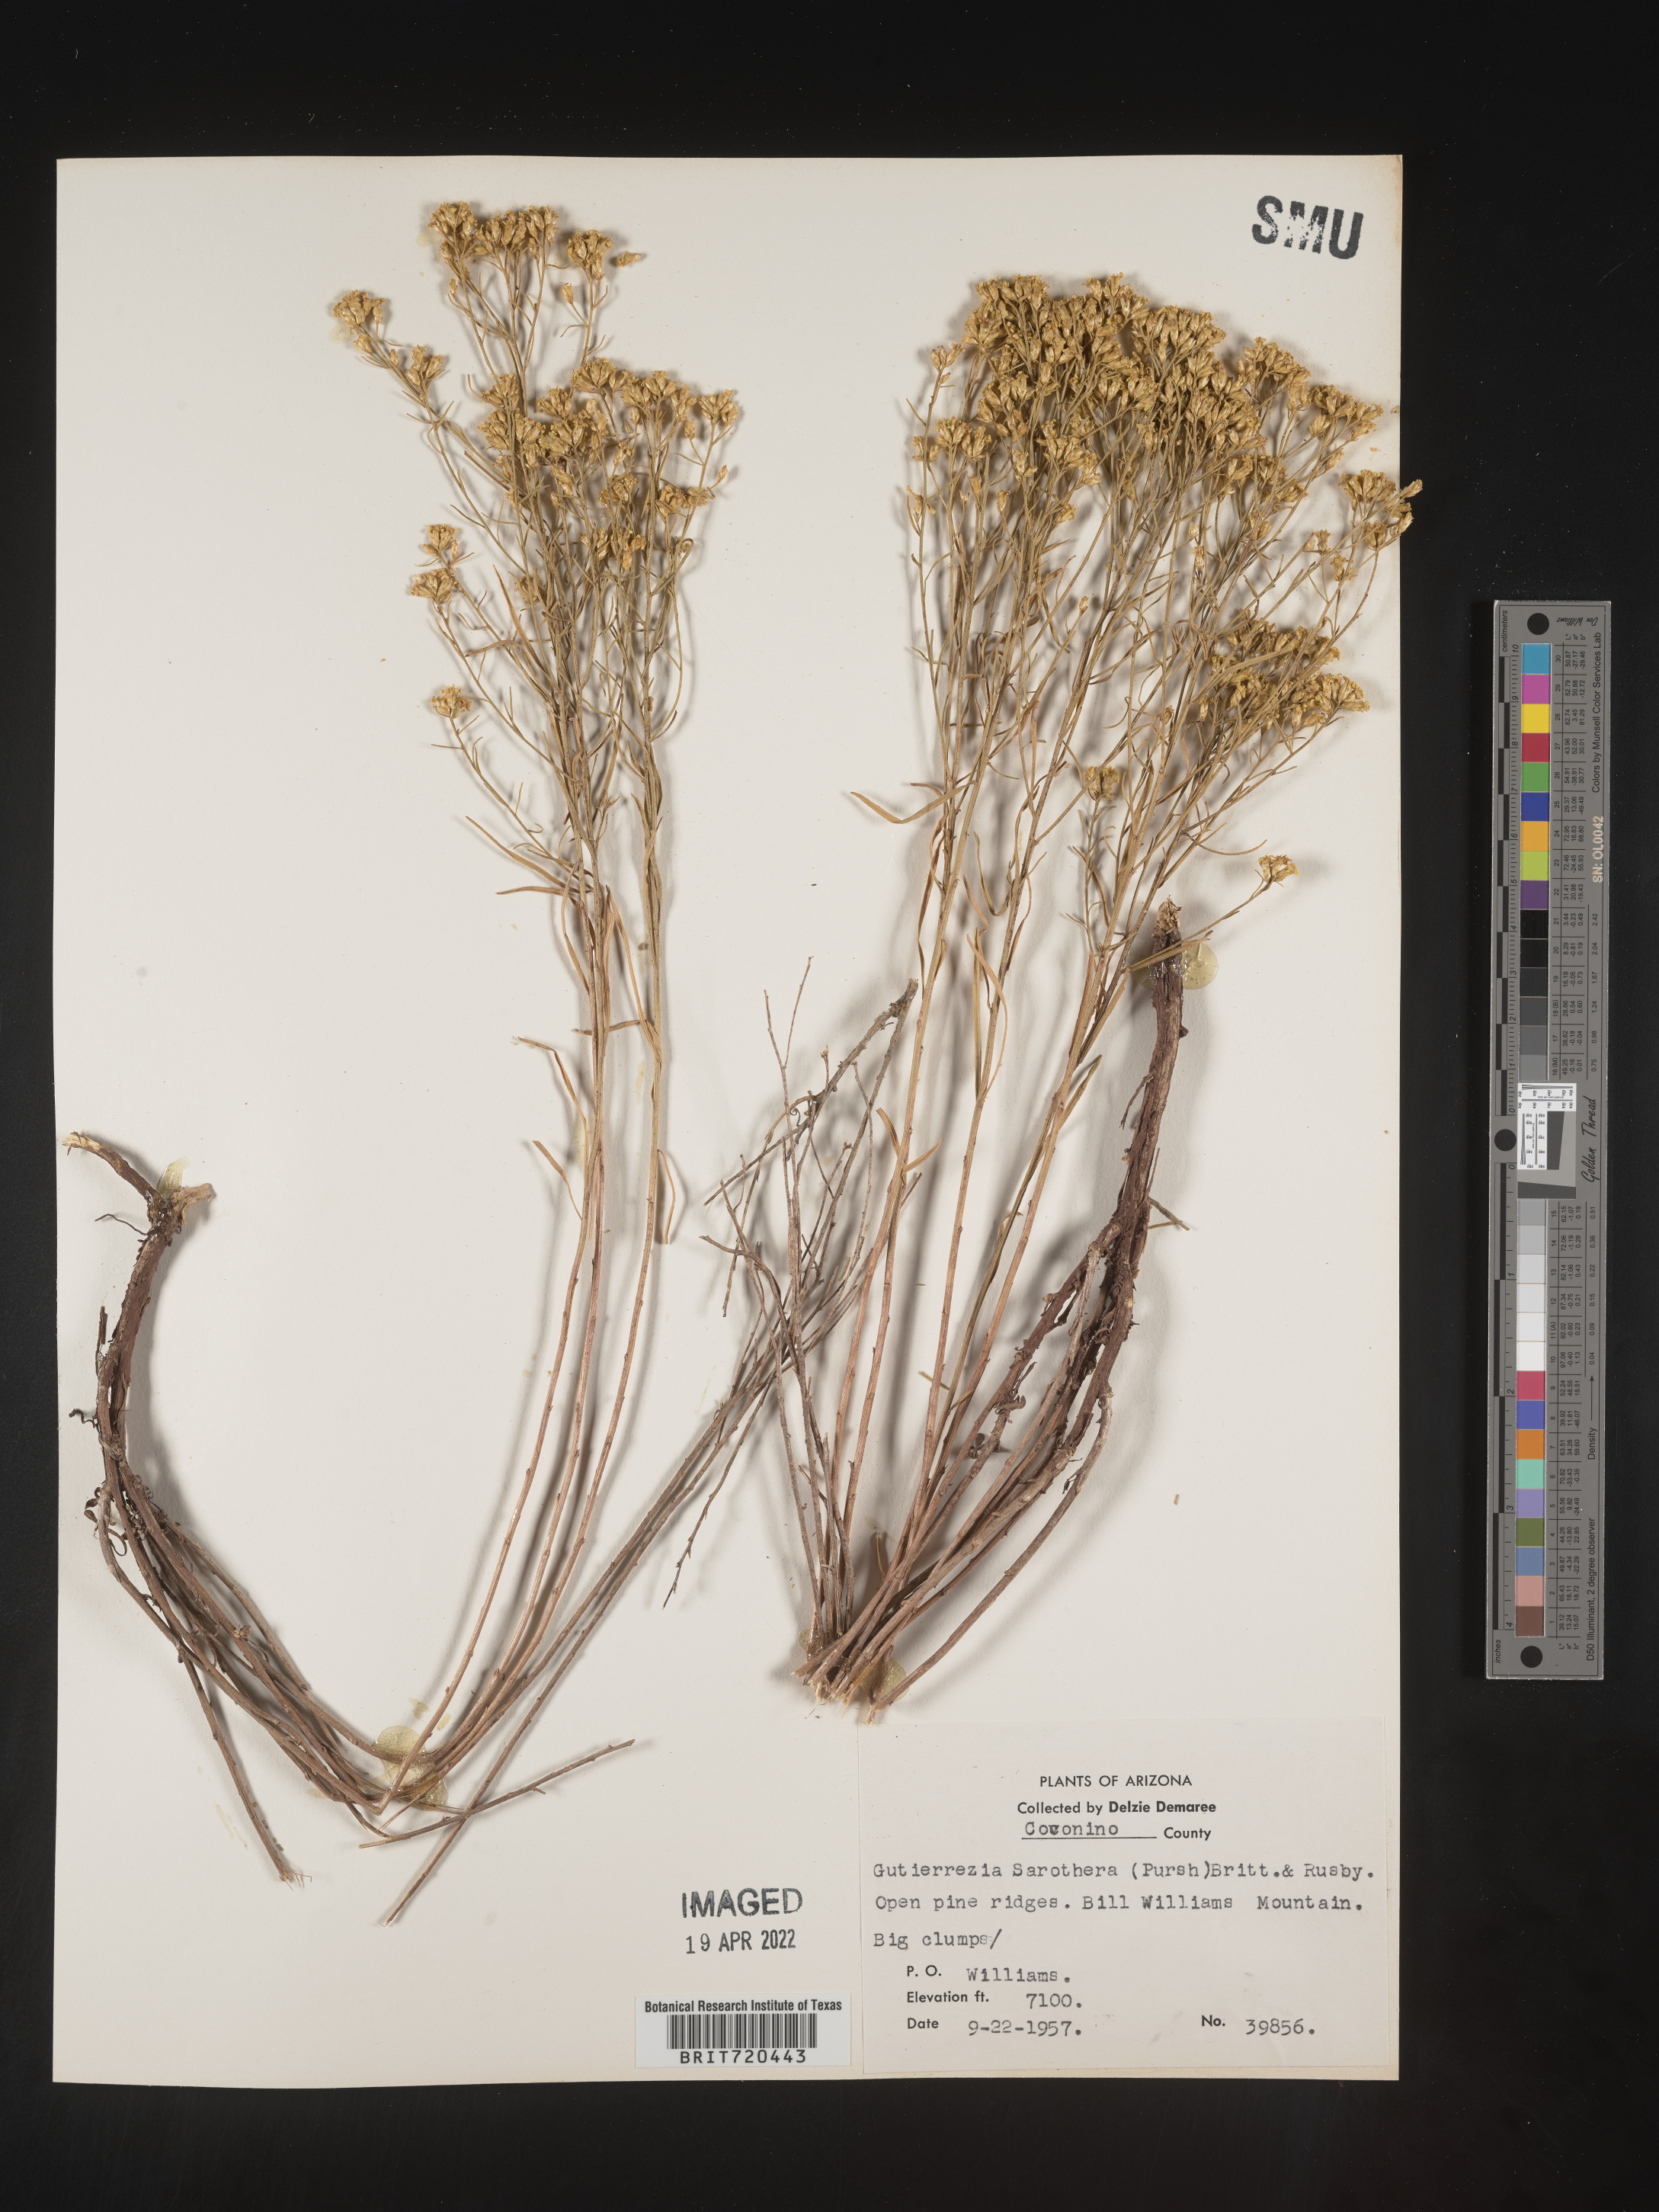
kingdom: Plantae
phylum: Tracheophyta
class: Magnoliopsida
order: Asterales
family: Asteraceae
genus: Gutierrezia
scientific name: Gutierrezia sarothrae
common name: Broom snakeweed
